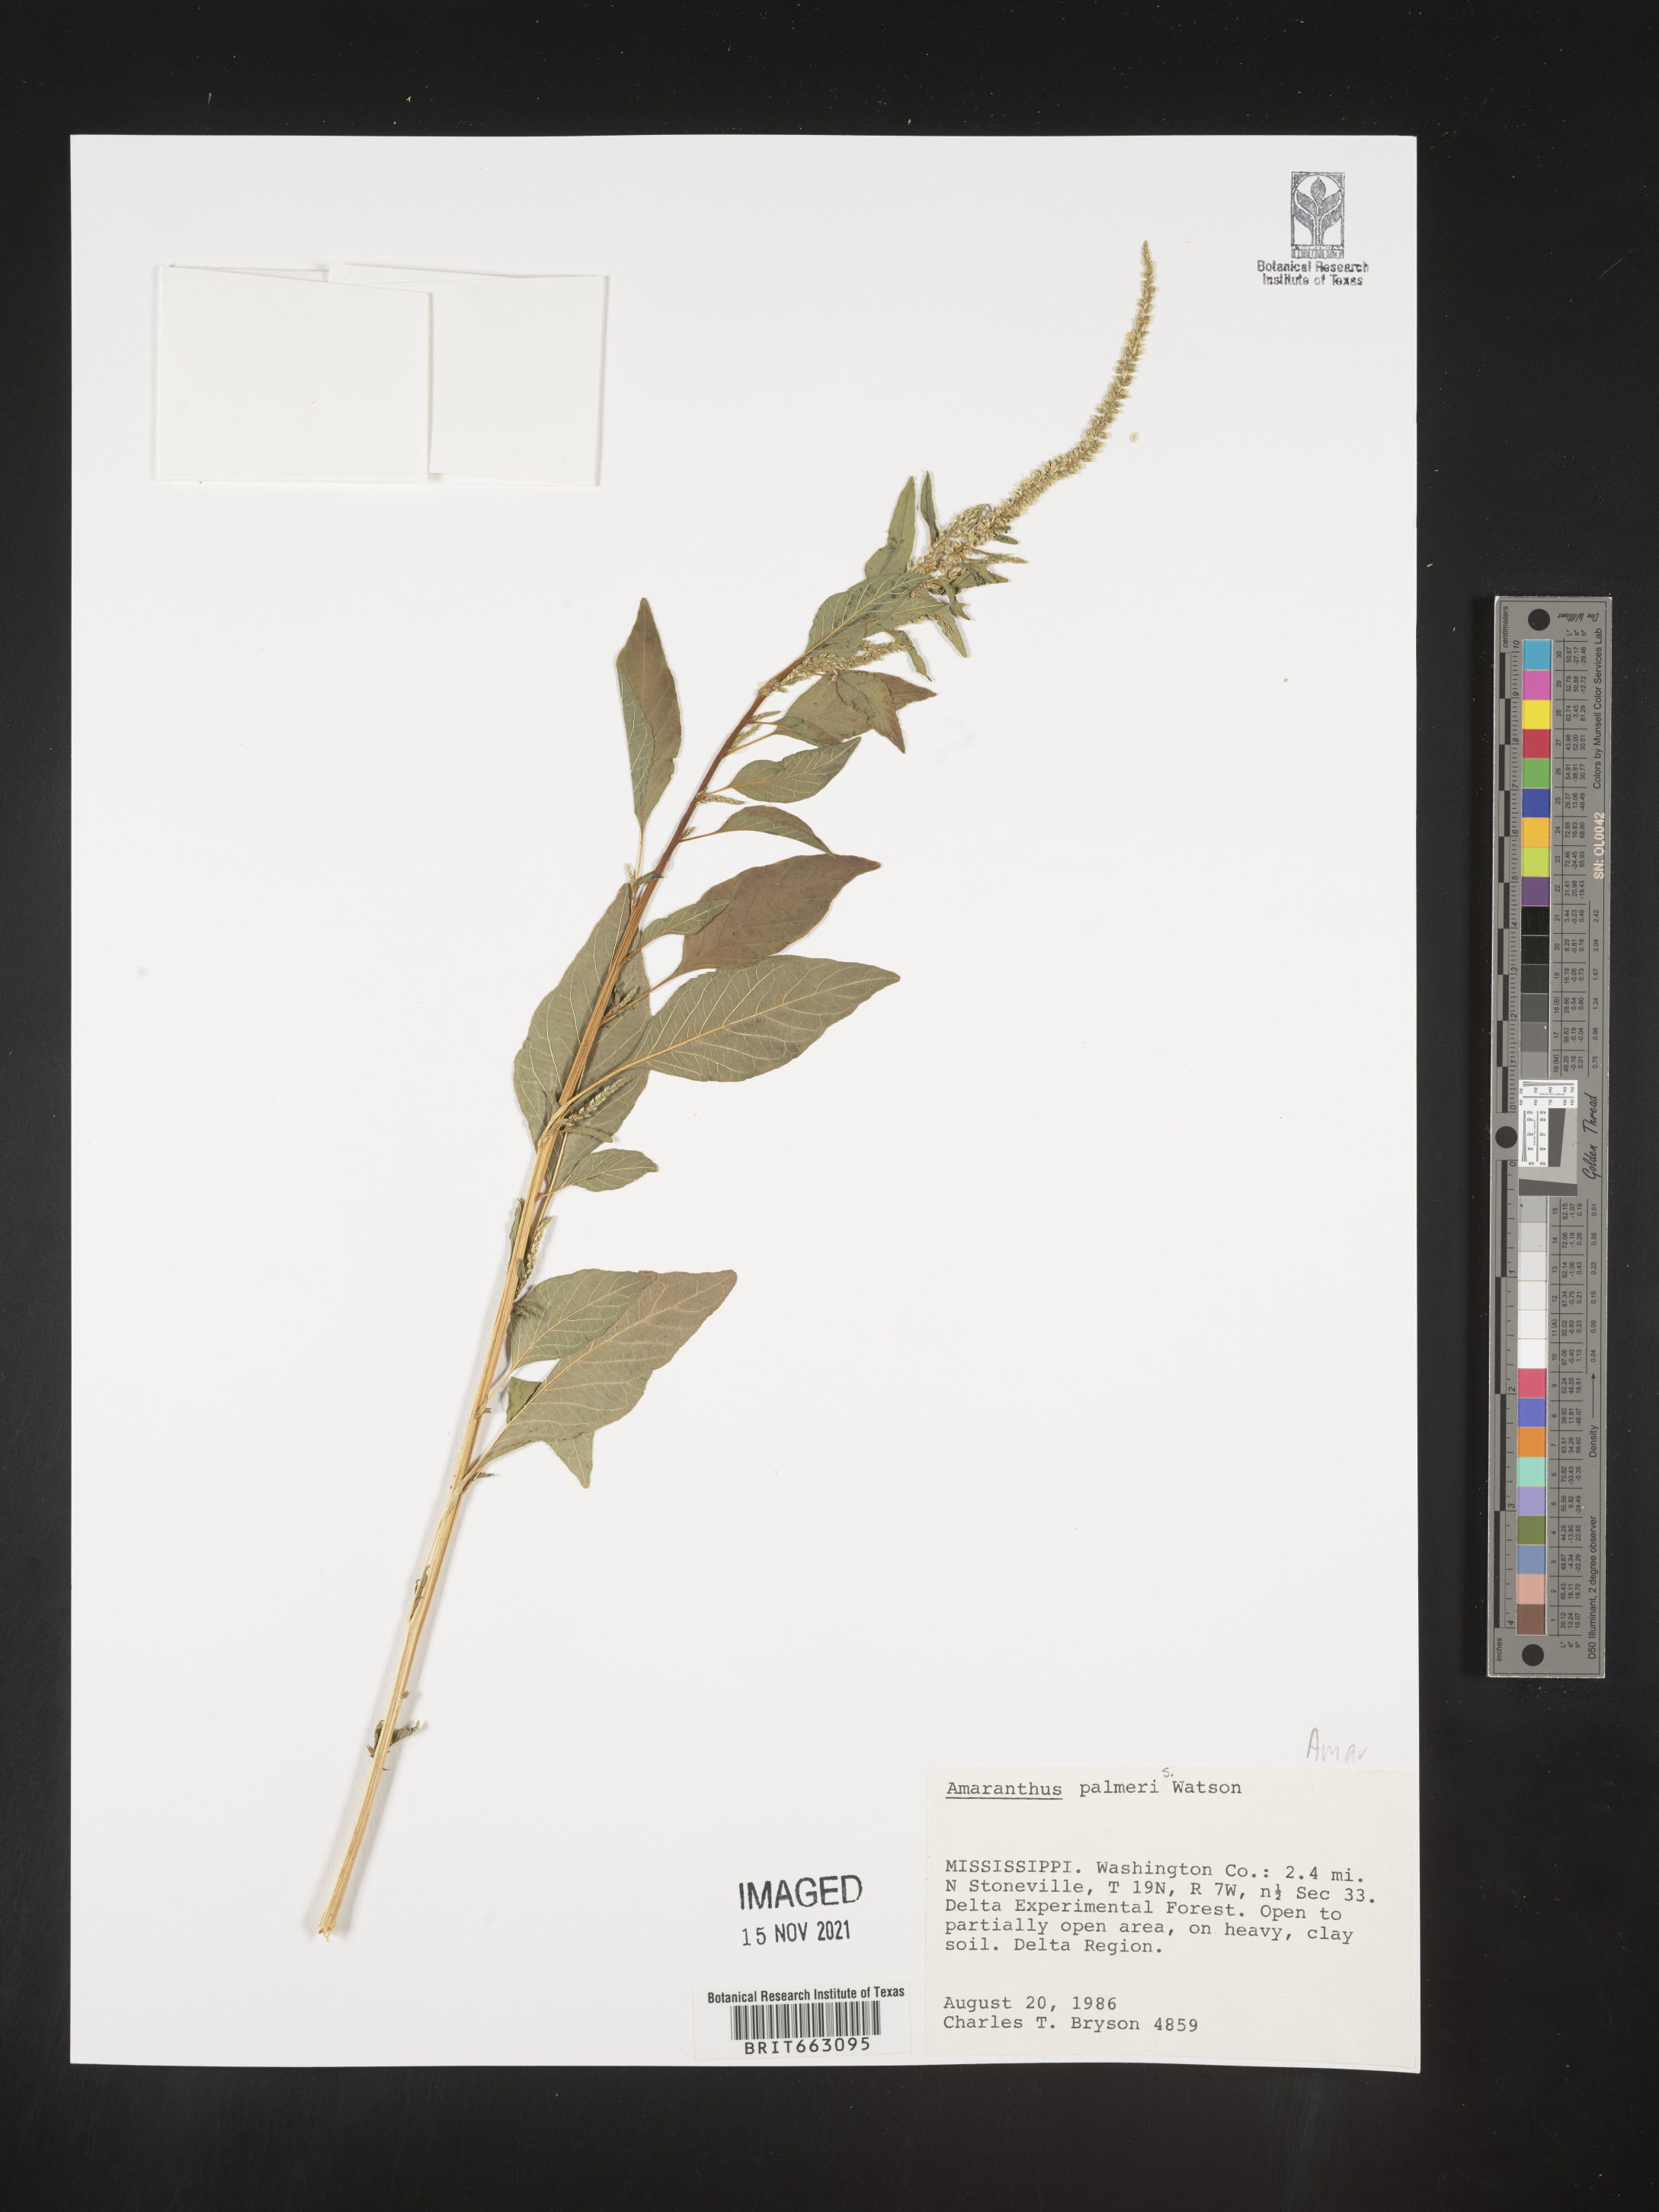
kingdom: Plantae
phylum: Tracheophyta
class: Magnoliopsida
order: Caryophyllales
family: Amaranthaceae
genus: Amaranthus
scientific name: Amaranthus palmeri
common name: Dioecious amaranth
